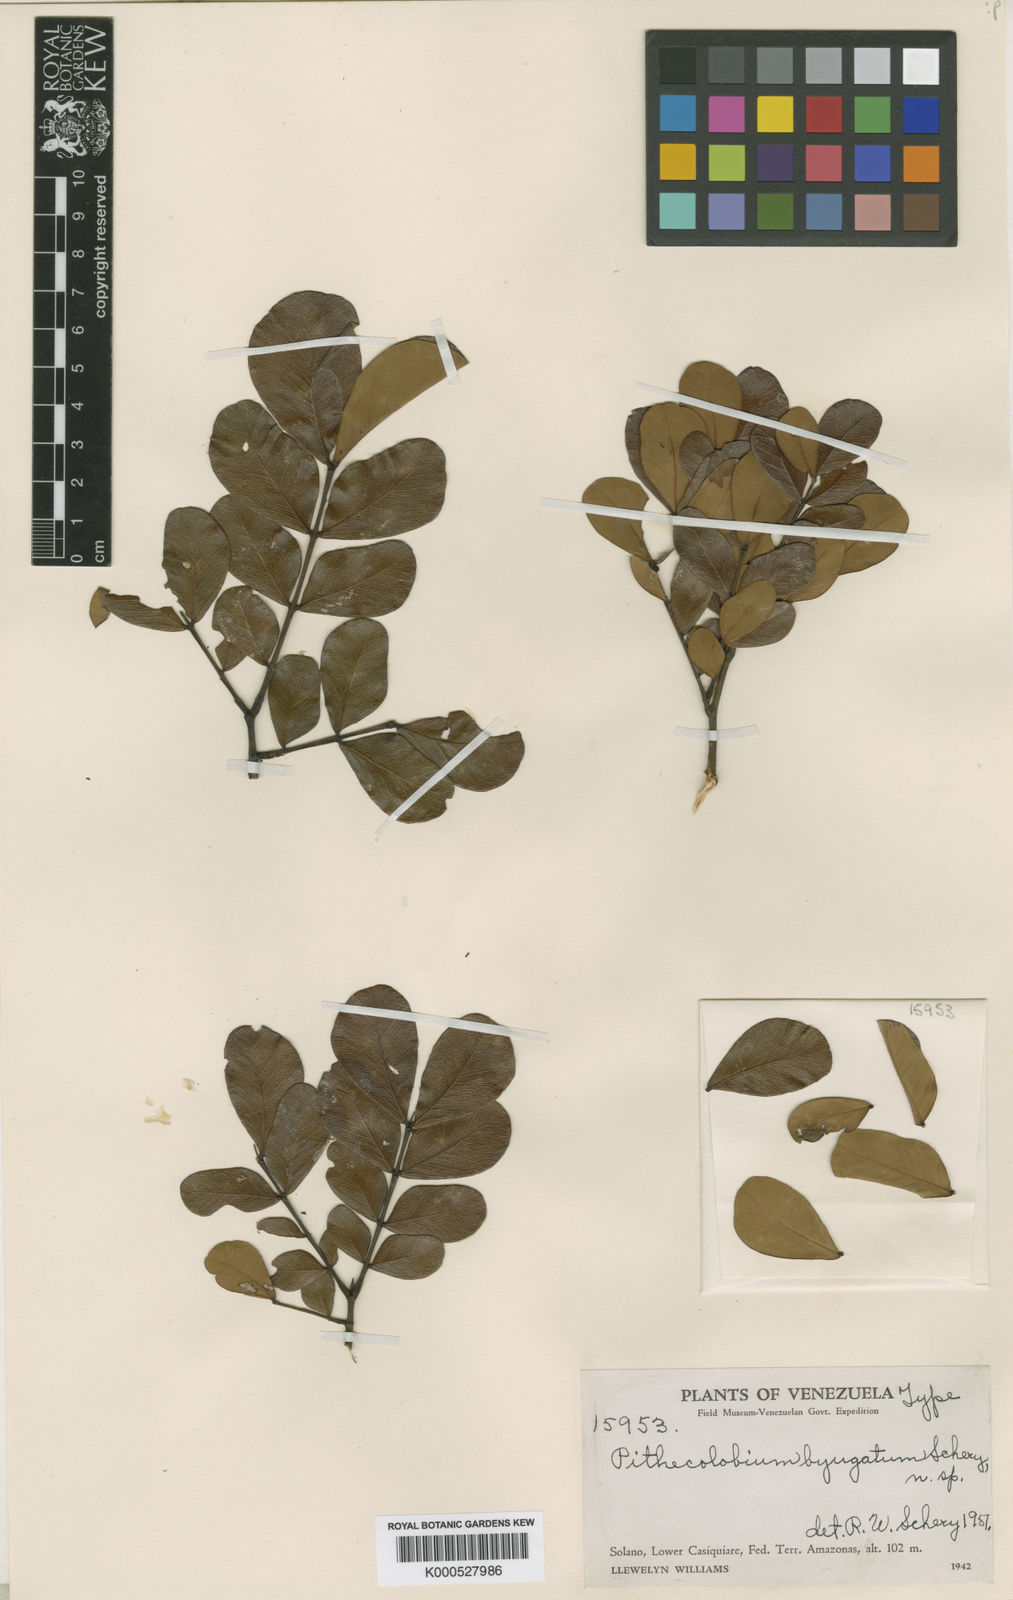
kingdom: Plantae
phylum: Tracheophyta
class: Magnoliopsida
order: Fabales
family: Fabaceae
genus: Albizia
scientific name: Albizia
